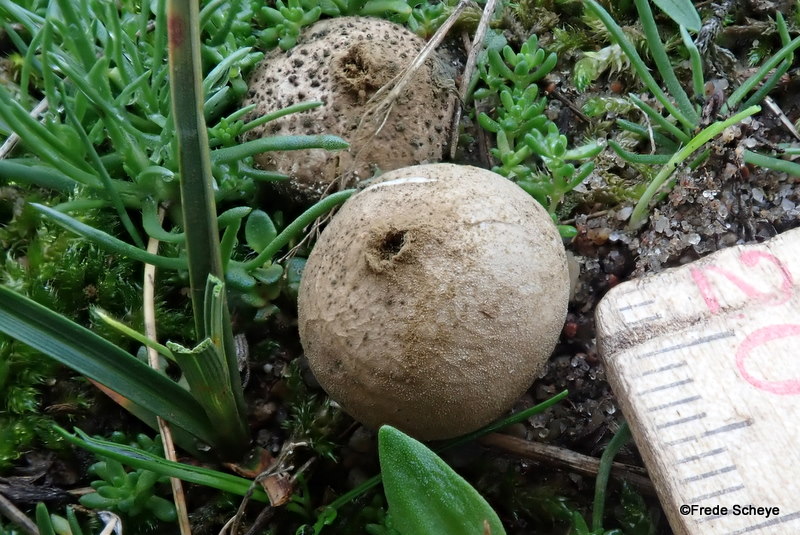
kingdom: Fungi
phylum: Basidiomycota
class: Agaricomycetes
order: Agaricales
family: Lycoperdaceae
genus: Lycoperdon
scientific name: Lycoperdon lividum
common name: mark-støvbold
